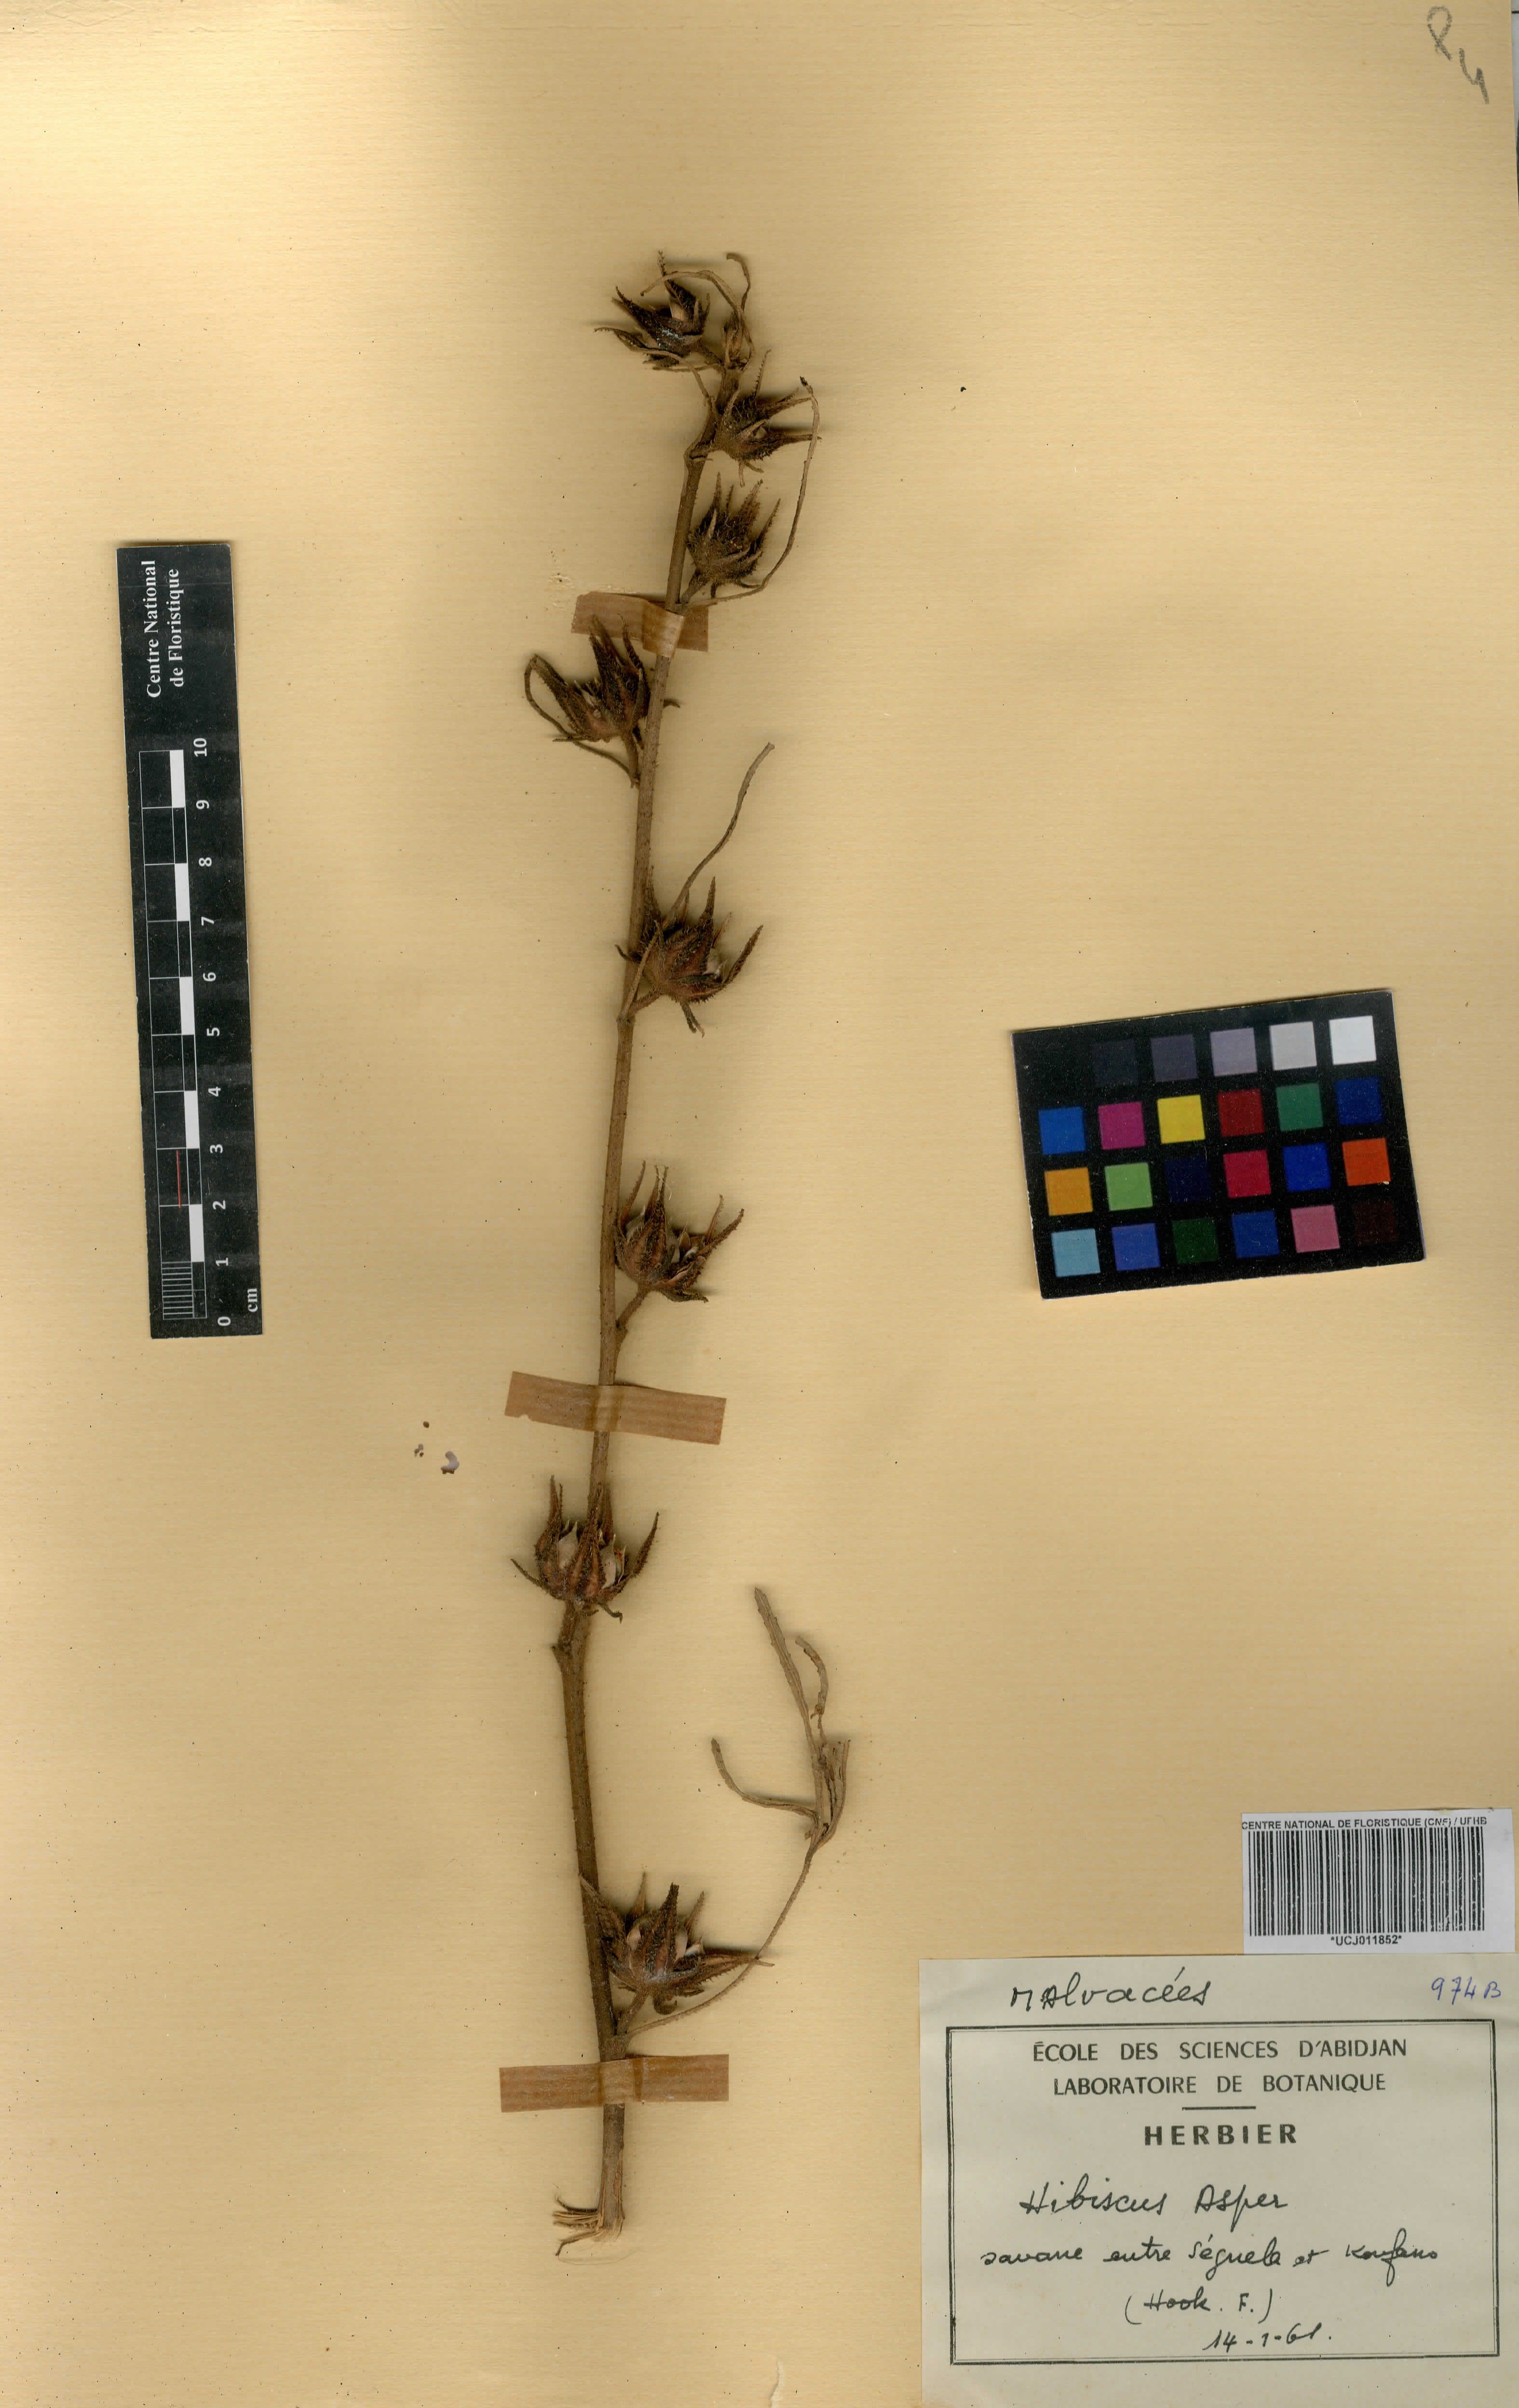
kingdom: Plantae
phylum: Tracheophyta
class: Magnoliopsida
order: Malvales
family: Malvaceae
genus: Hibiscus
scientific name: Hibiscus cannabinus
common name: Brown indianhemp
